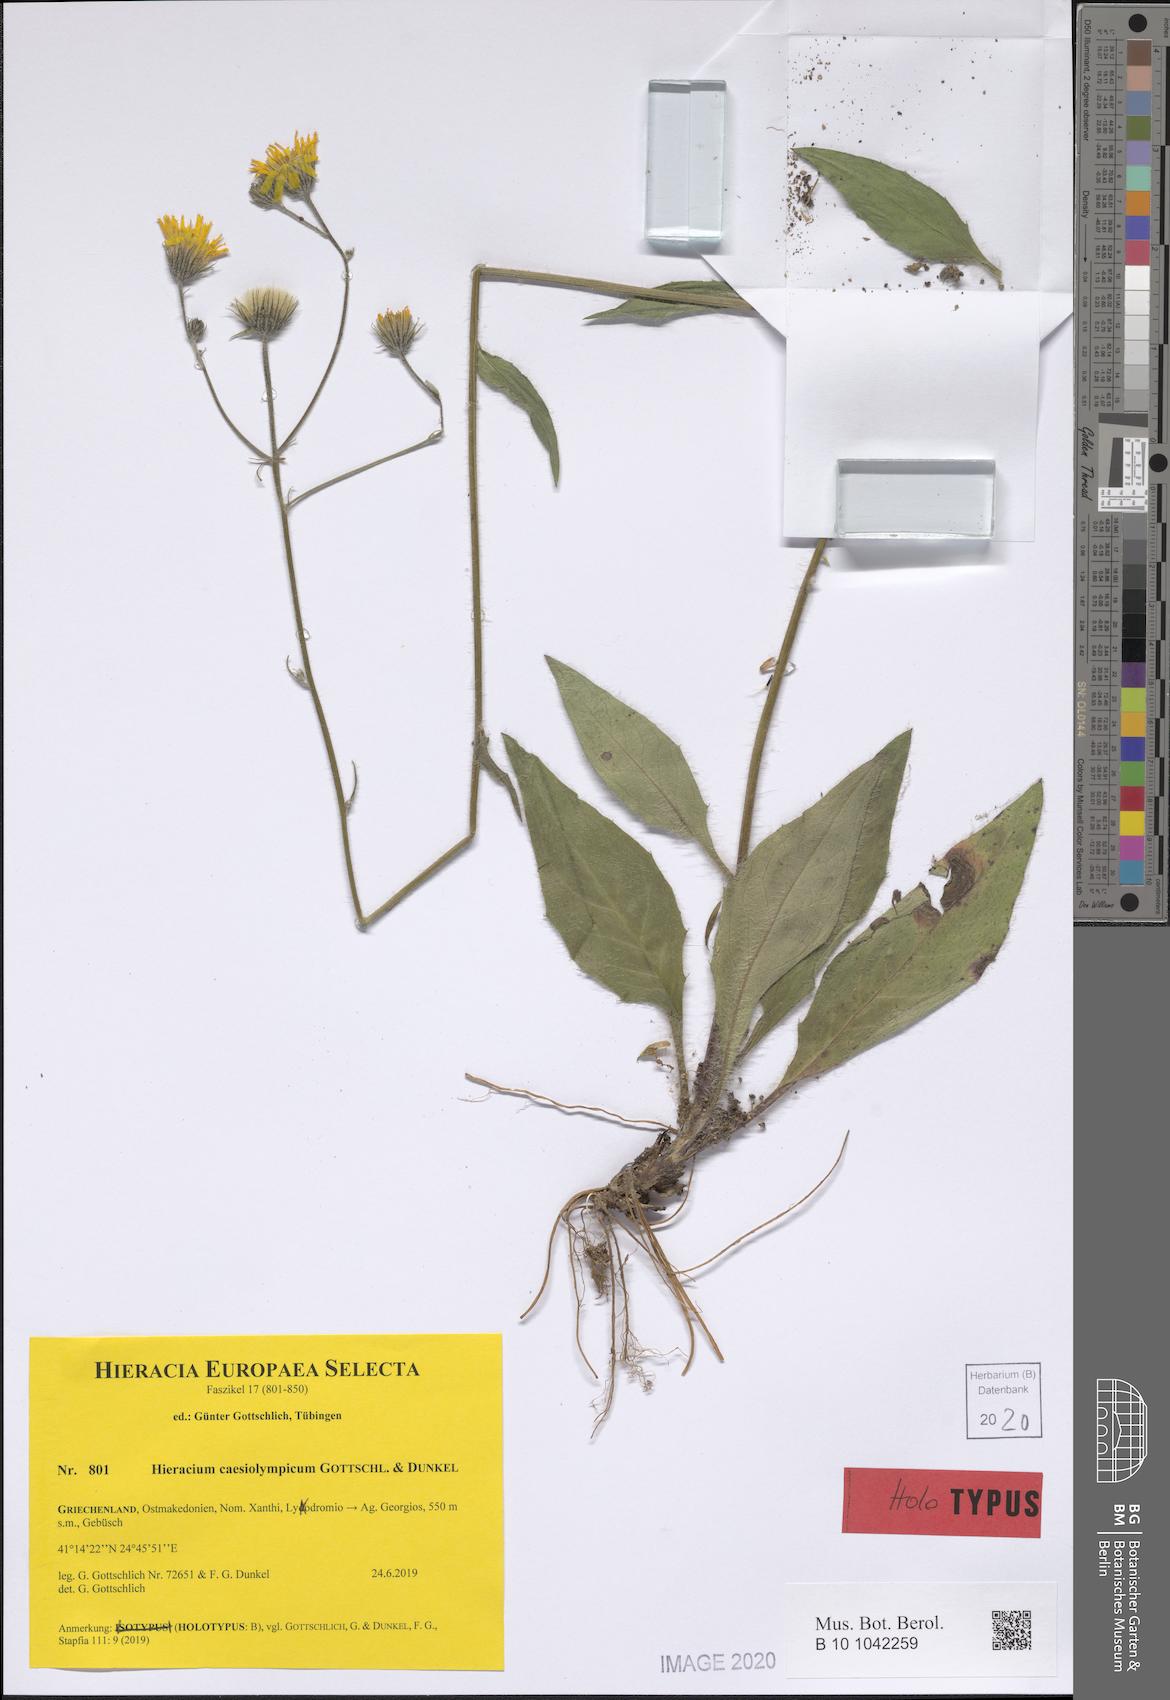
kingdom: Plantae
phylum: Tracheophyta
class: Magnoliopsida
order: Asterales
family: Asteraceae
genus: Hieracium
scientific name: Hieracium caesiolympicum
